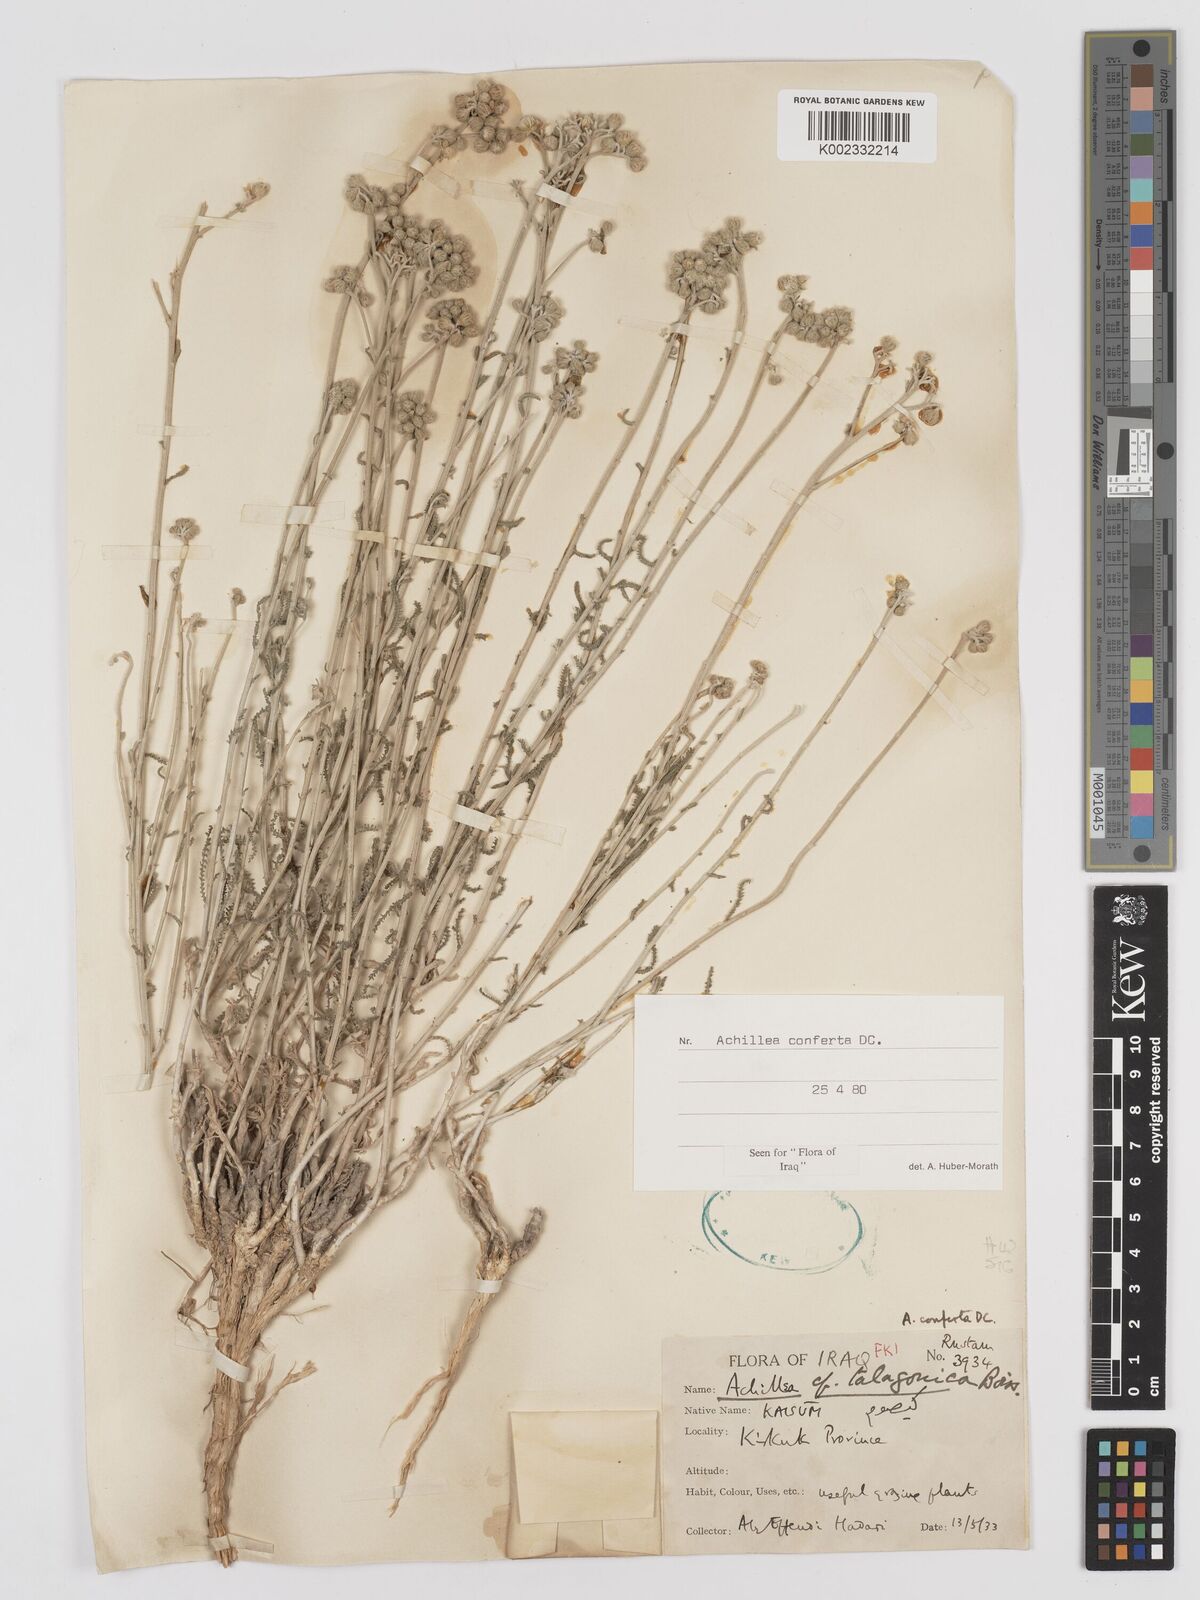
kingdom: Plantae
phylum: Tracheophyta
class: Magnoliopsida
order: Asterales
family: Asteraceae
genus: Achillea
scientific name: Achillea conferta
